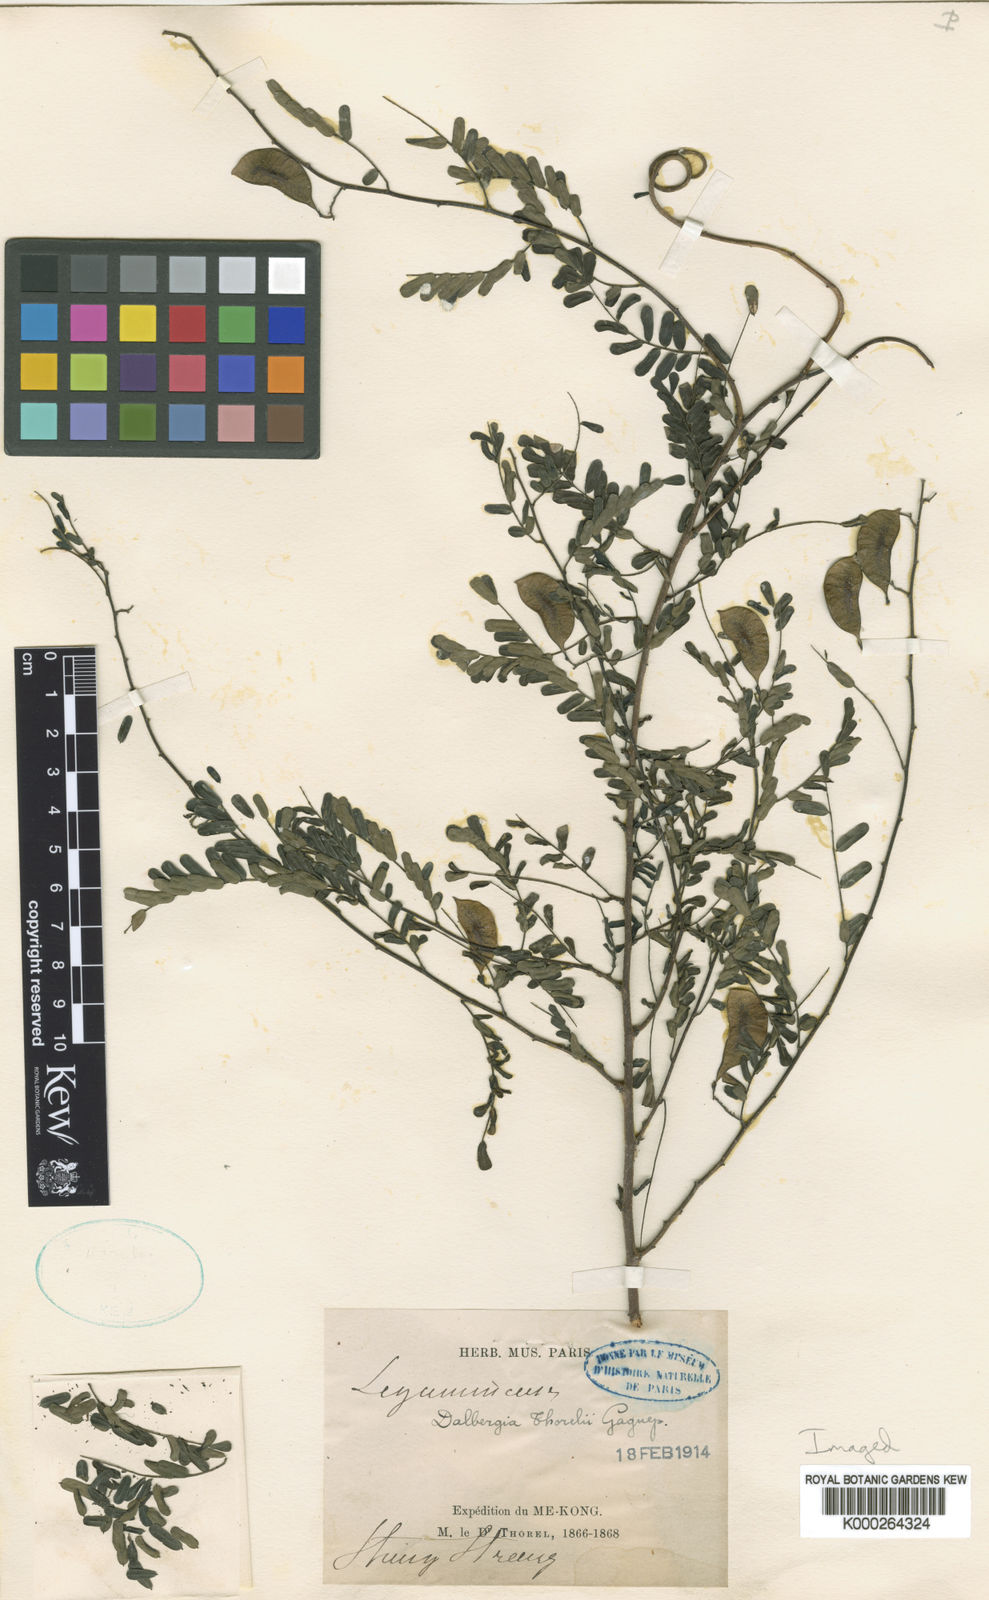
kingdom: Plantae
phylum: Tracheophyta
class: Magnoliopsida
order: Fabales
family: Fabaceae
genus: Dalbergia
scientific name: Dalbergia thorelii
